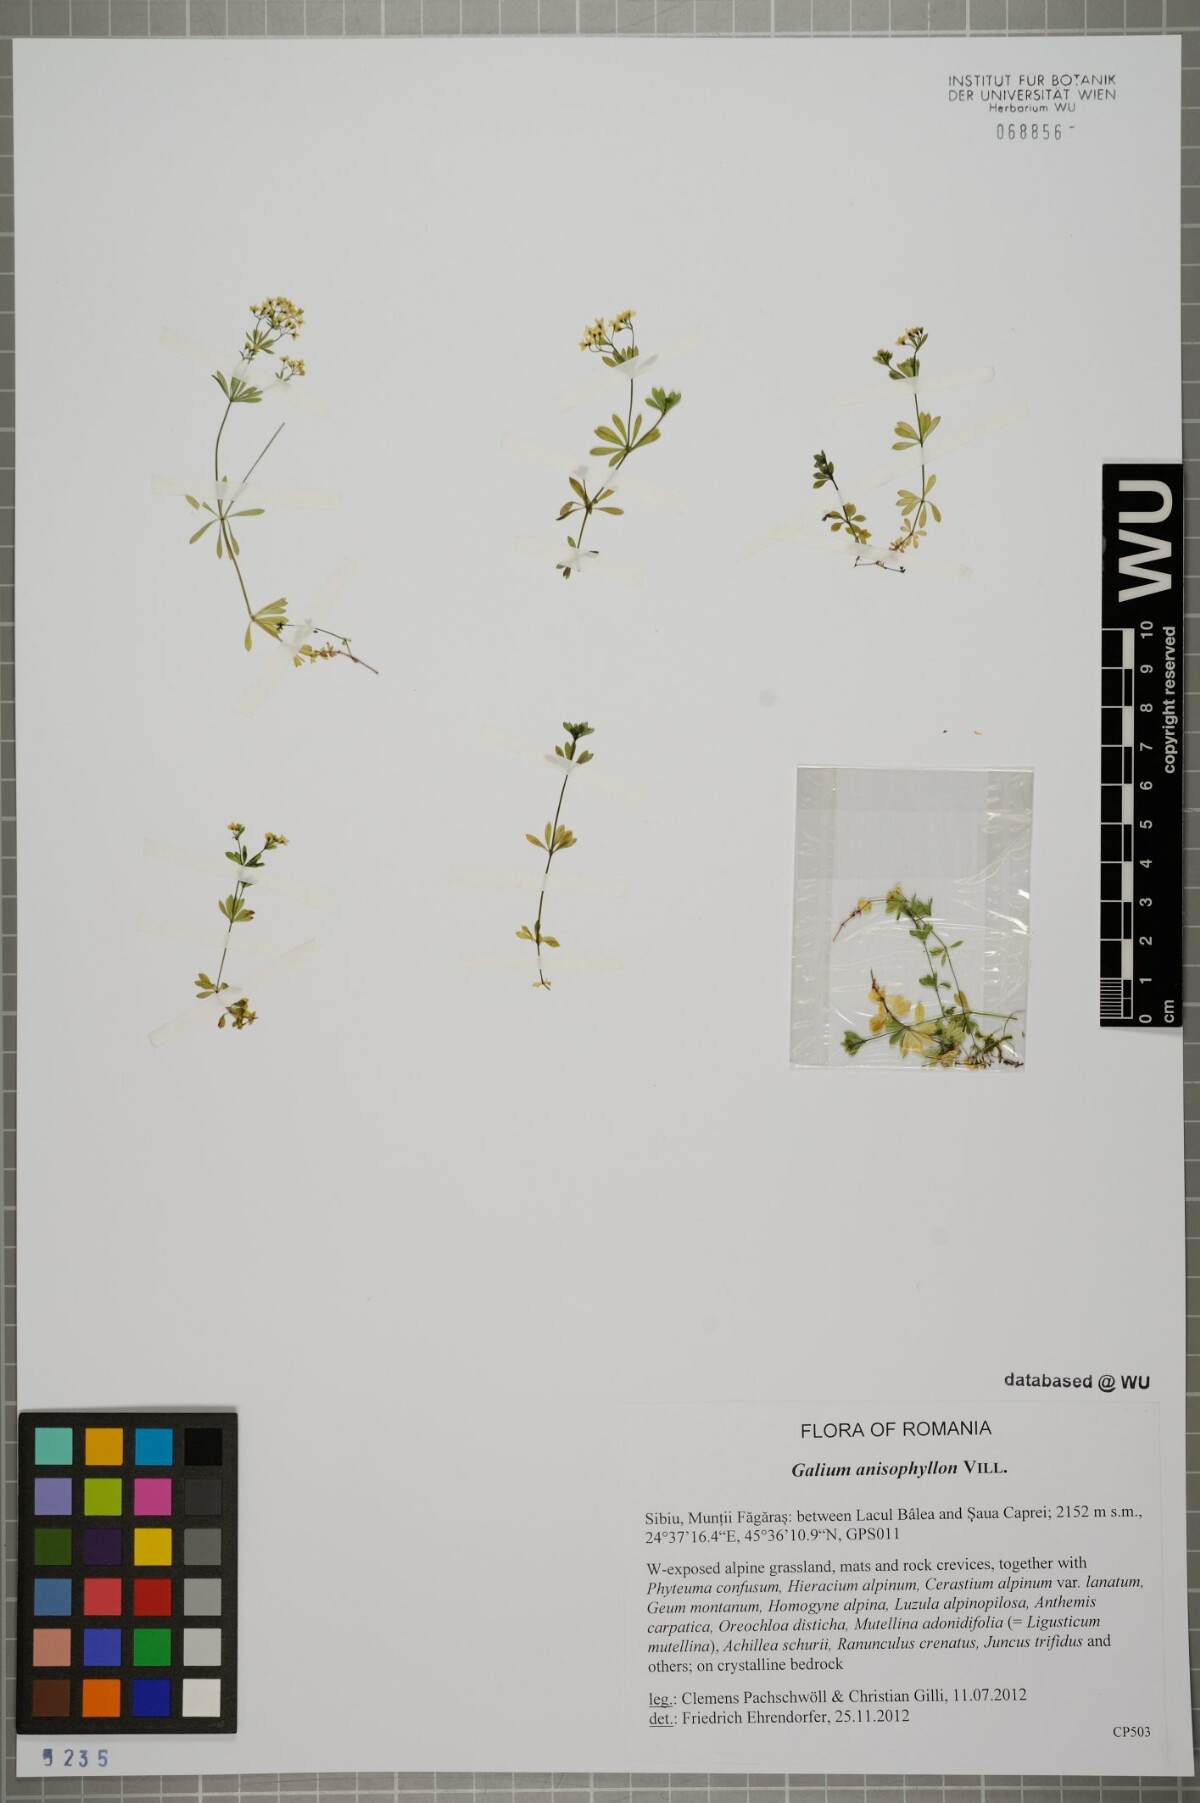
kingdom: Plantae
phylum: Tracheophyta
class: Magnoliopsida
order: Gentianales
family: Rubiaceae
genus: Galium
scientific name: Galium anisophyllon
